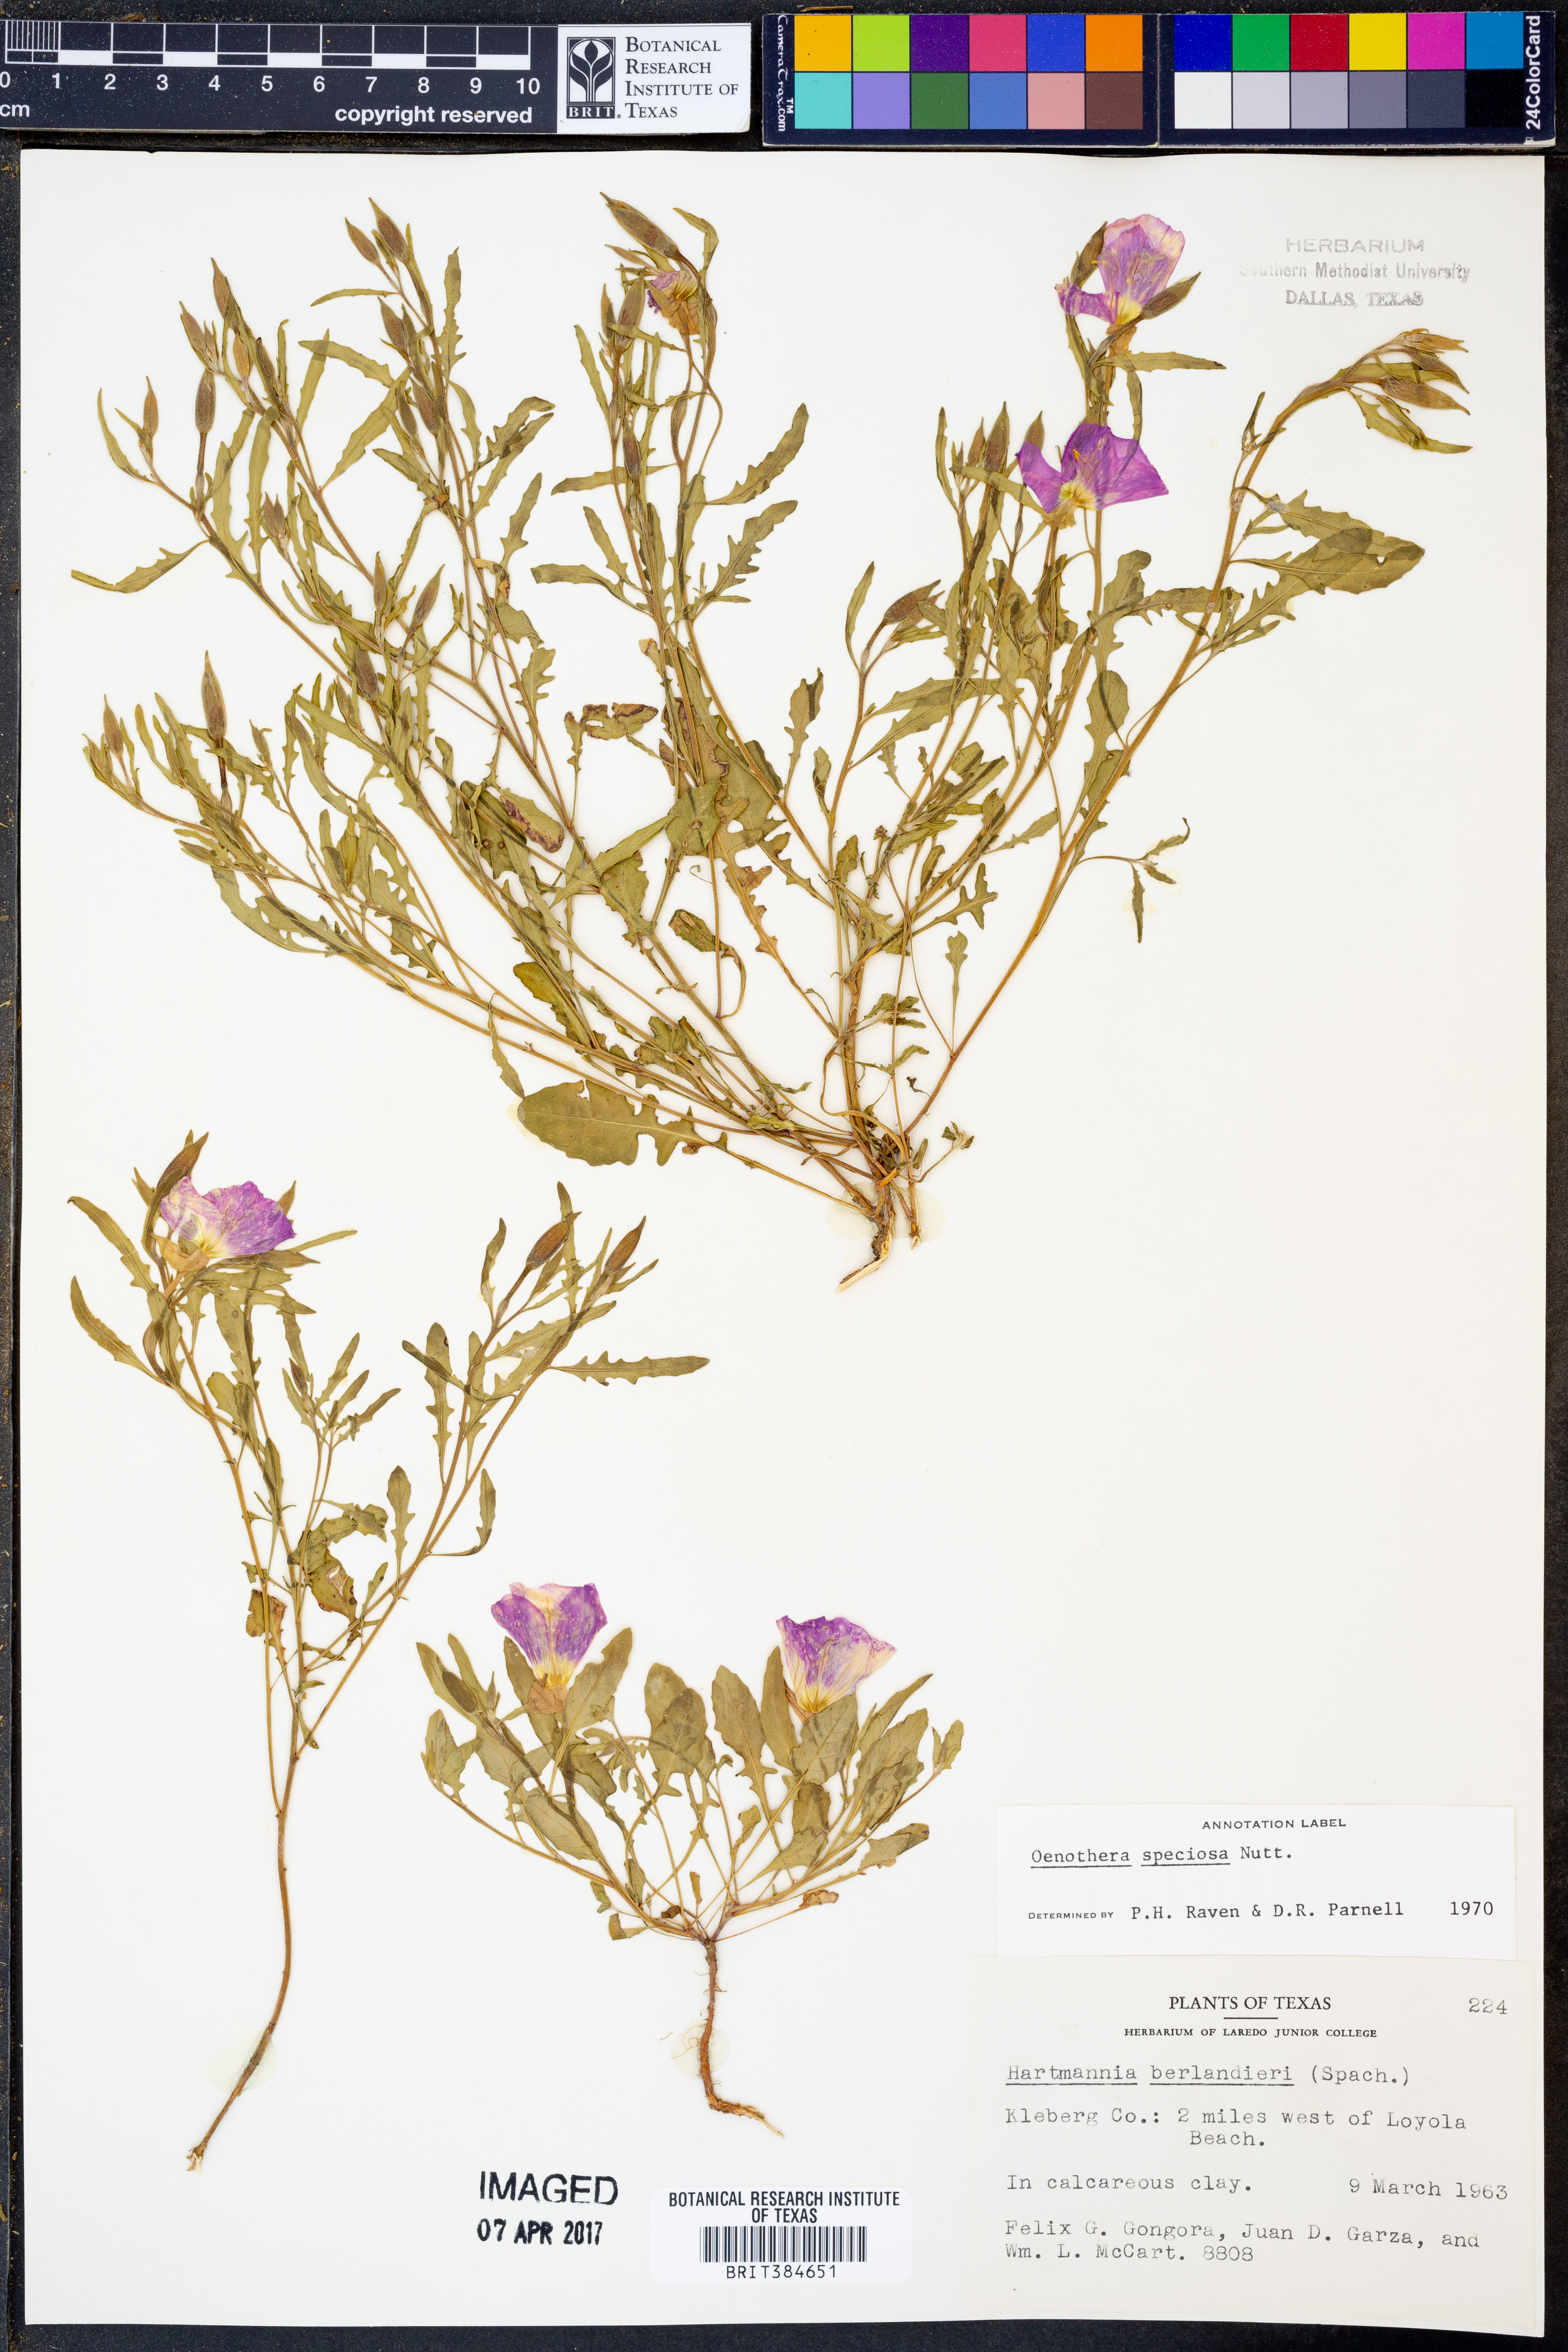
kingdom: Plantae
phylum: Tracheophyta
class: Magnoliopsida
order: Myrtales
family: Onagraceae
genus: Oenothera
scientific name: Oenothera speciosa
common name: White evening-primrose
